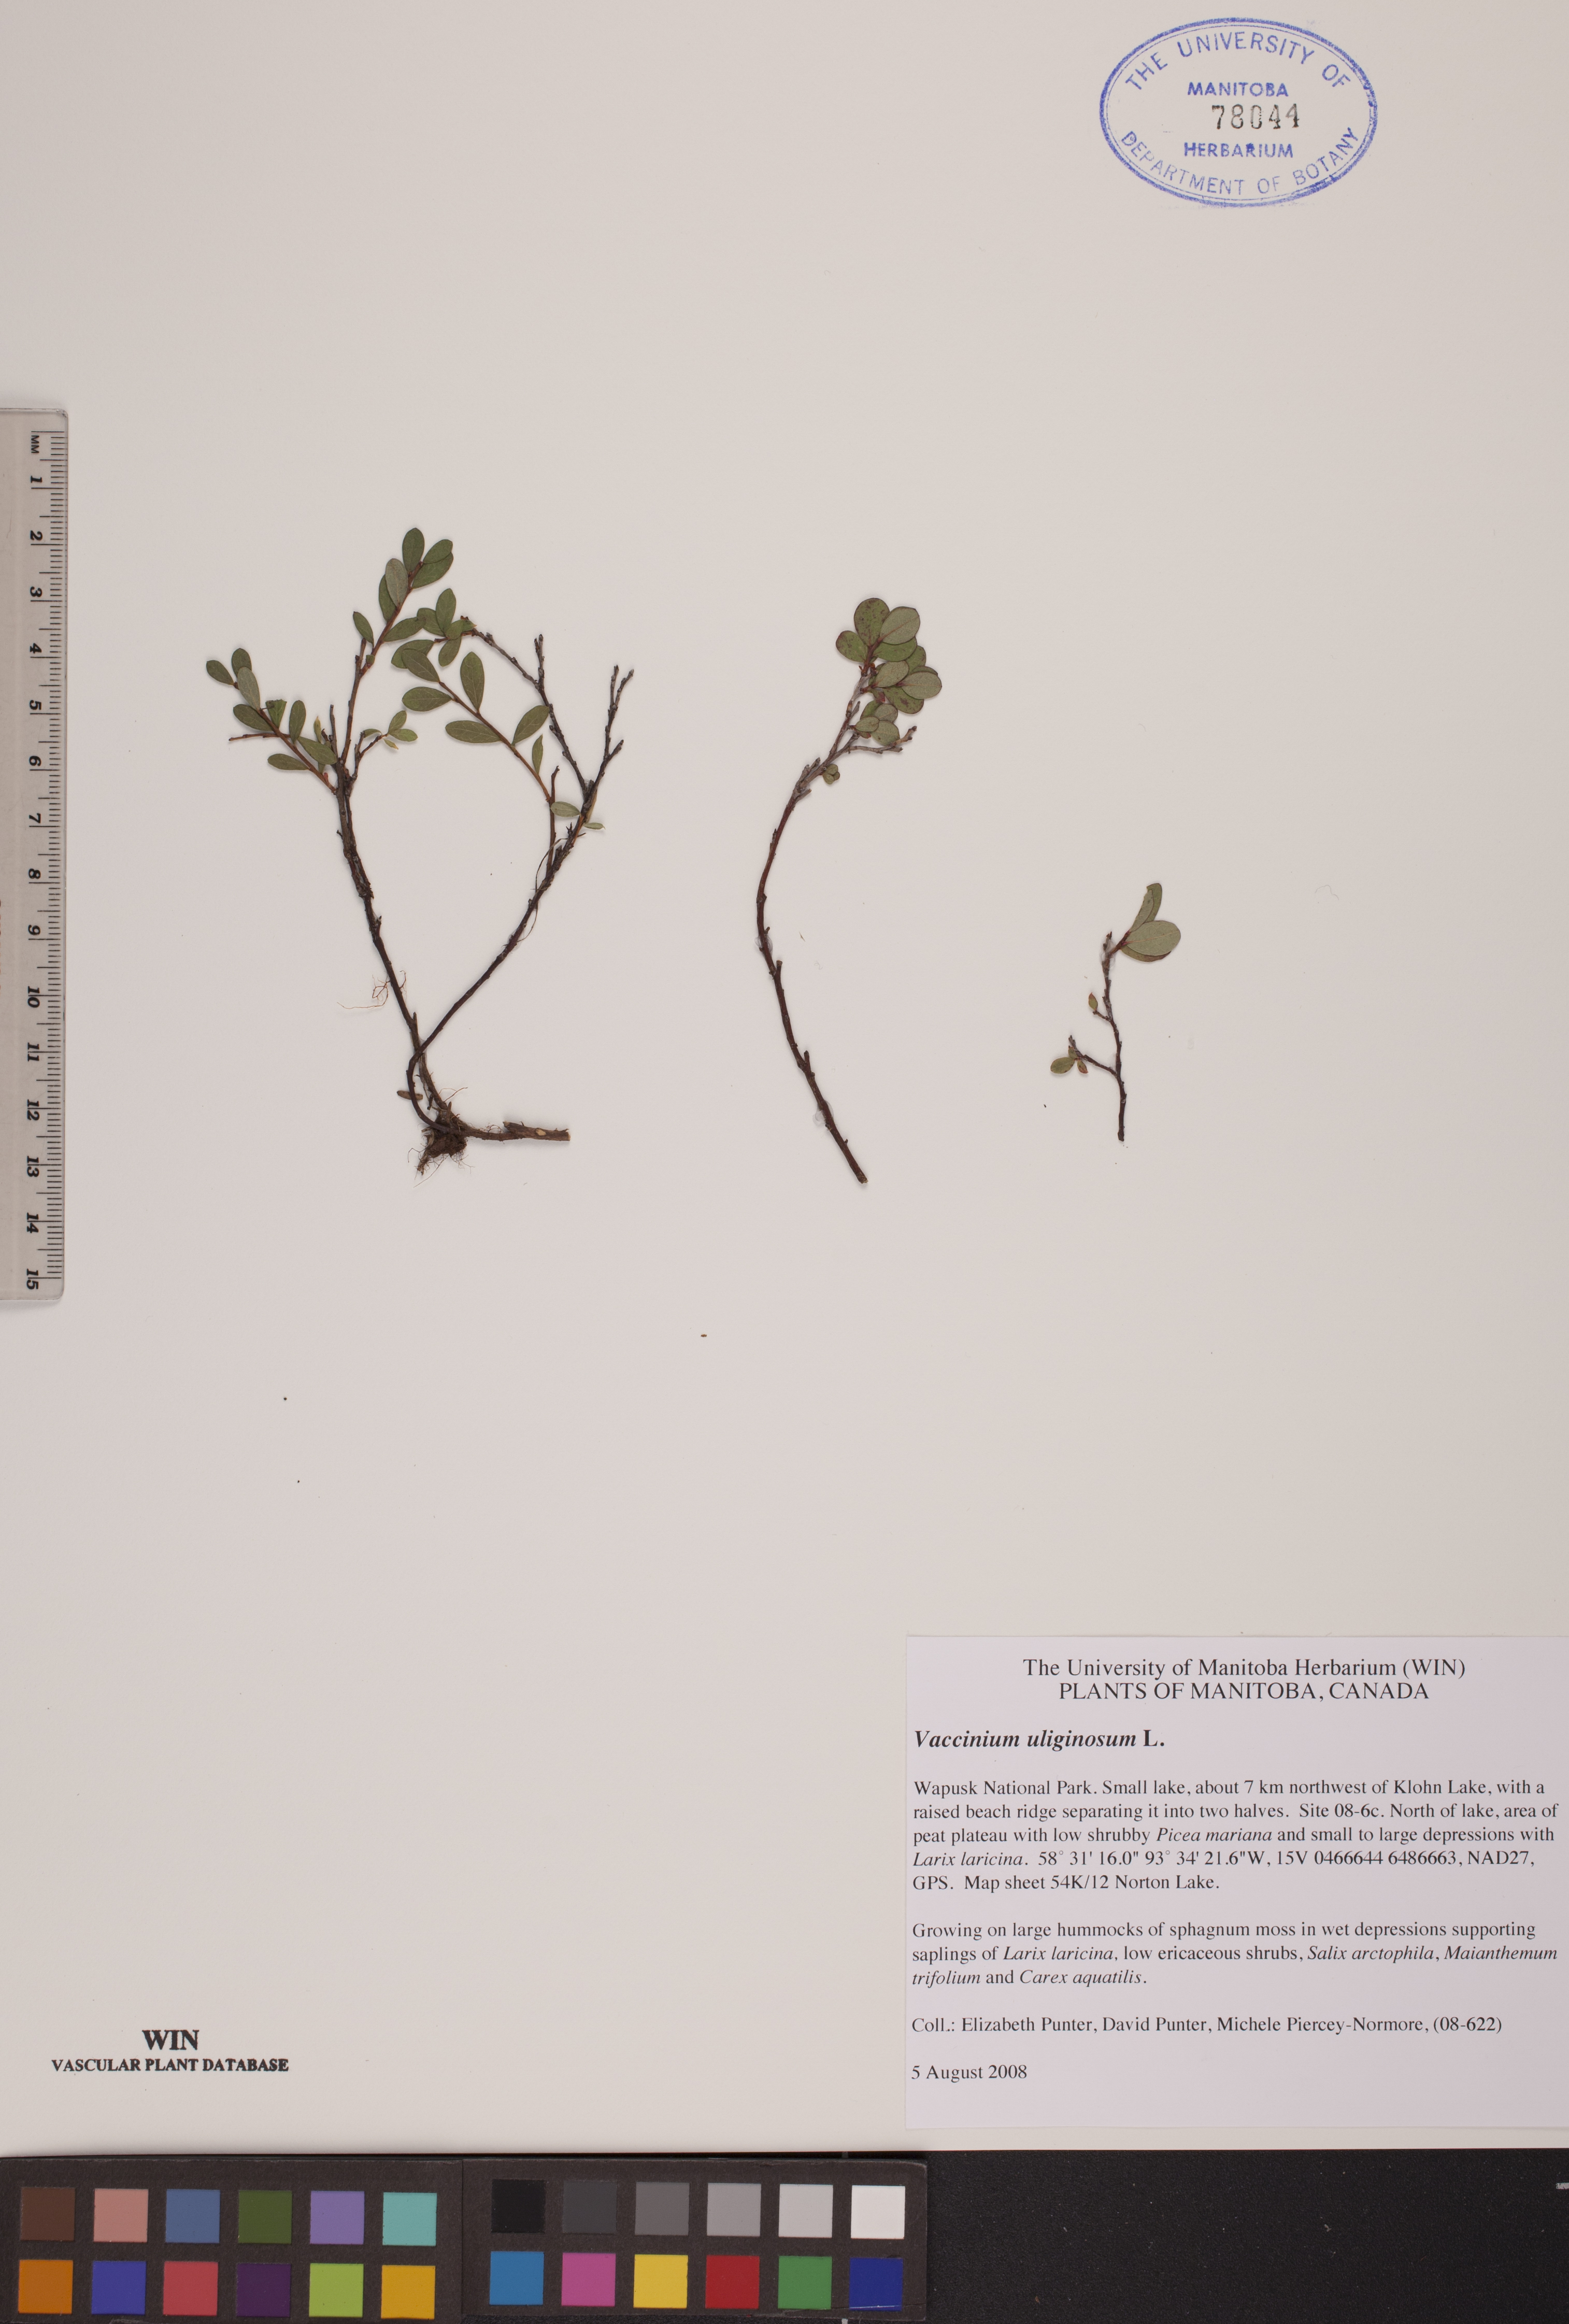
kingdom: Plantae
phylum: Tracheophyta
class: Magnoliopsida
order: Ericales
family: Ericaceae
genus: Vaccinium
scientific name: Vaccinium uliginosum
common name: Bog bilberry
